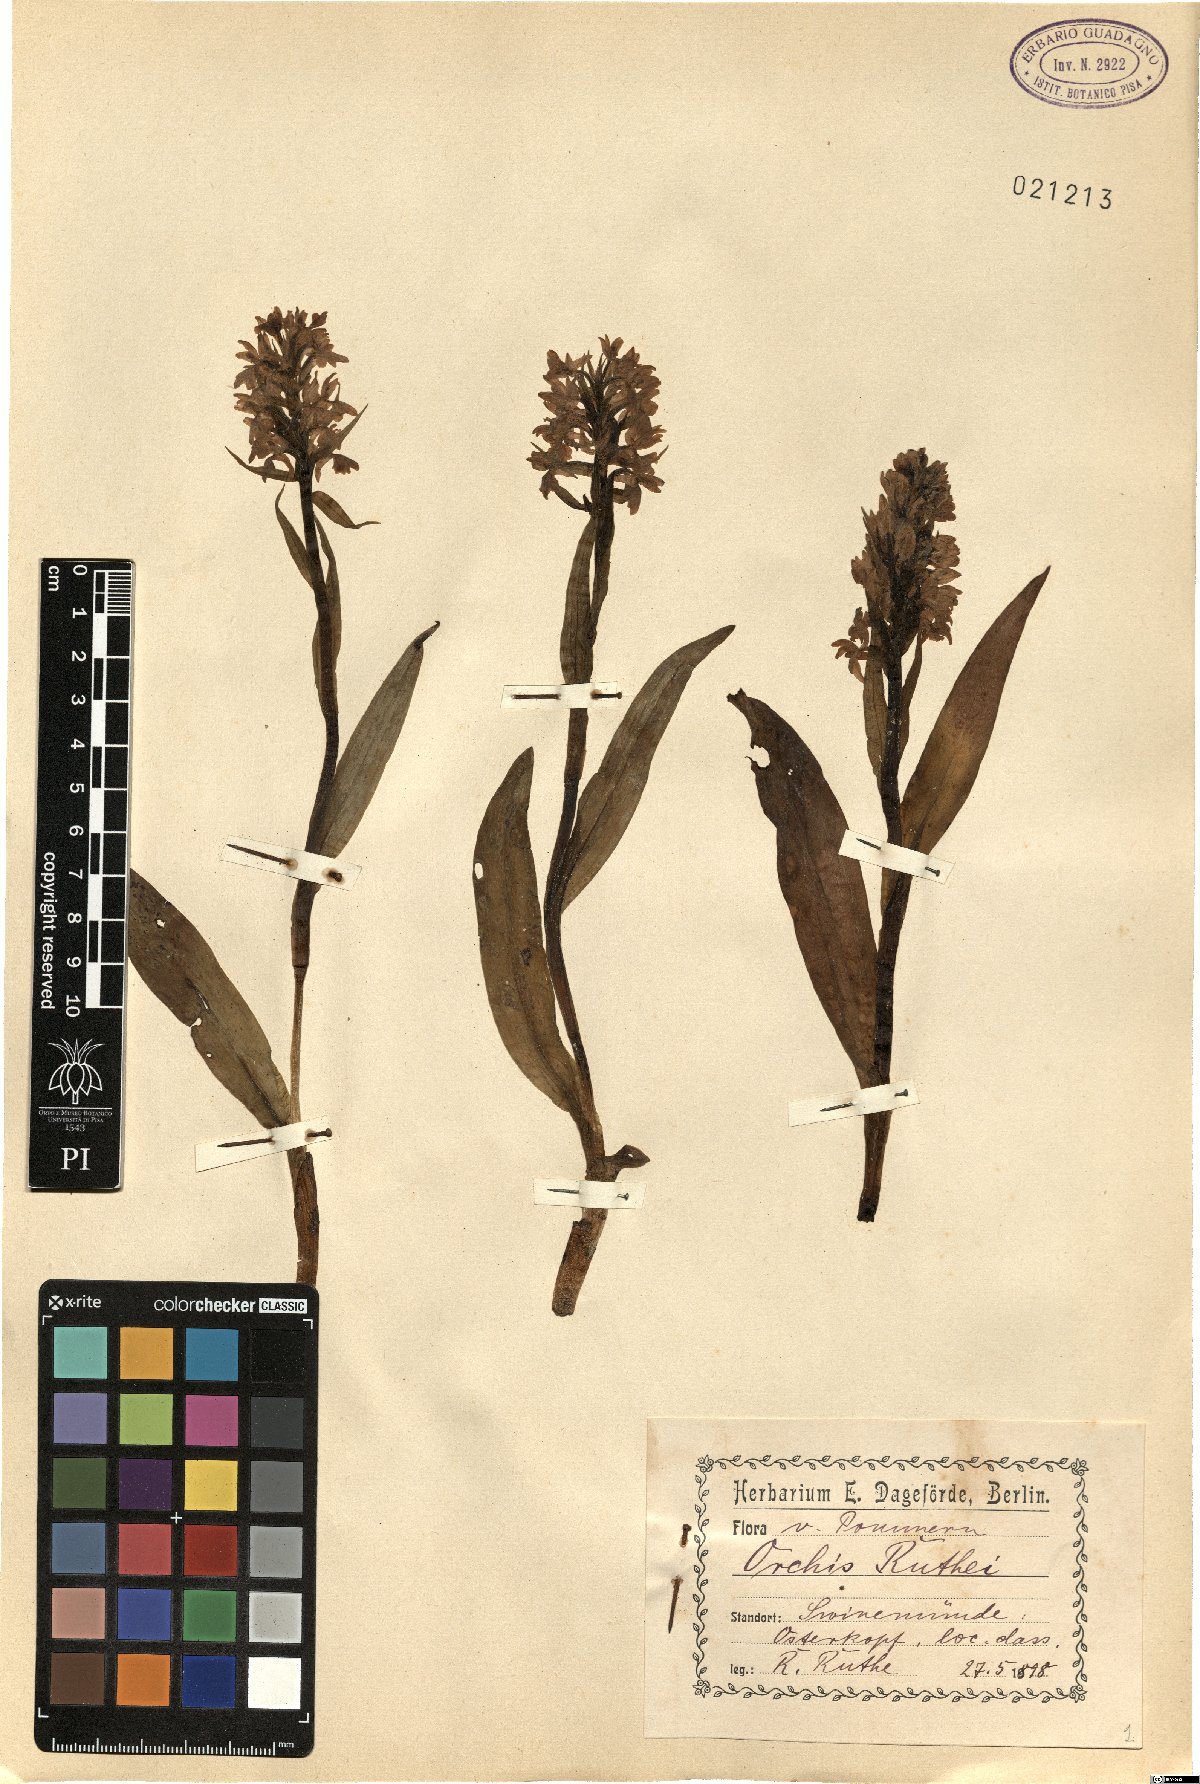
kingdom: Plantae
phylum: Tracheophyta
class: Liliopsida
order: Asparagales
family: Orchidaceae
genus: Dactylorhiza
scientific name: Dactylorhiza majalis
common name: Marsh orchid
